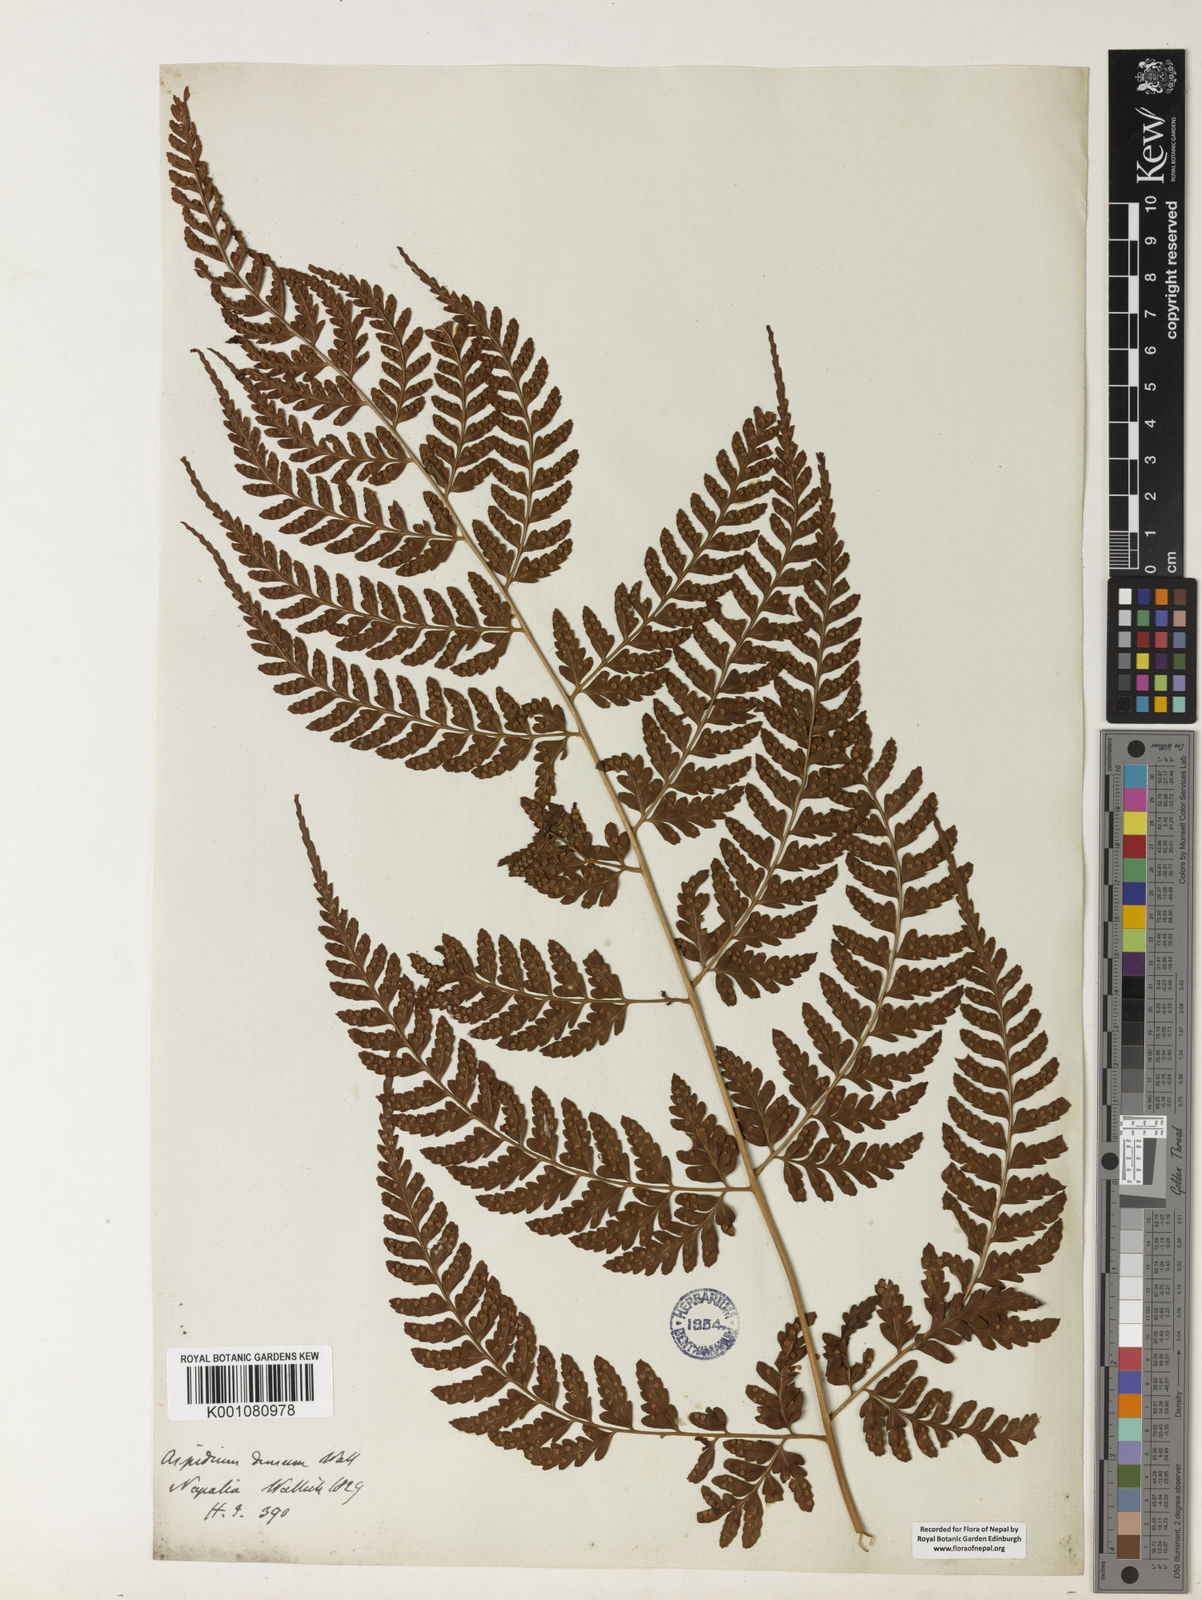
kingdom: Plantae
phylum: Tracheophyta
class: Polypodiopsida
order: Polypodiales
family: Dryopteridaceae
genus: Dryopteris
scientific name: Dryopteris sparsa
